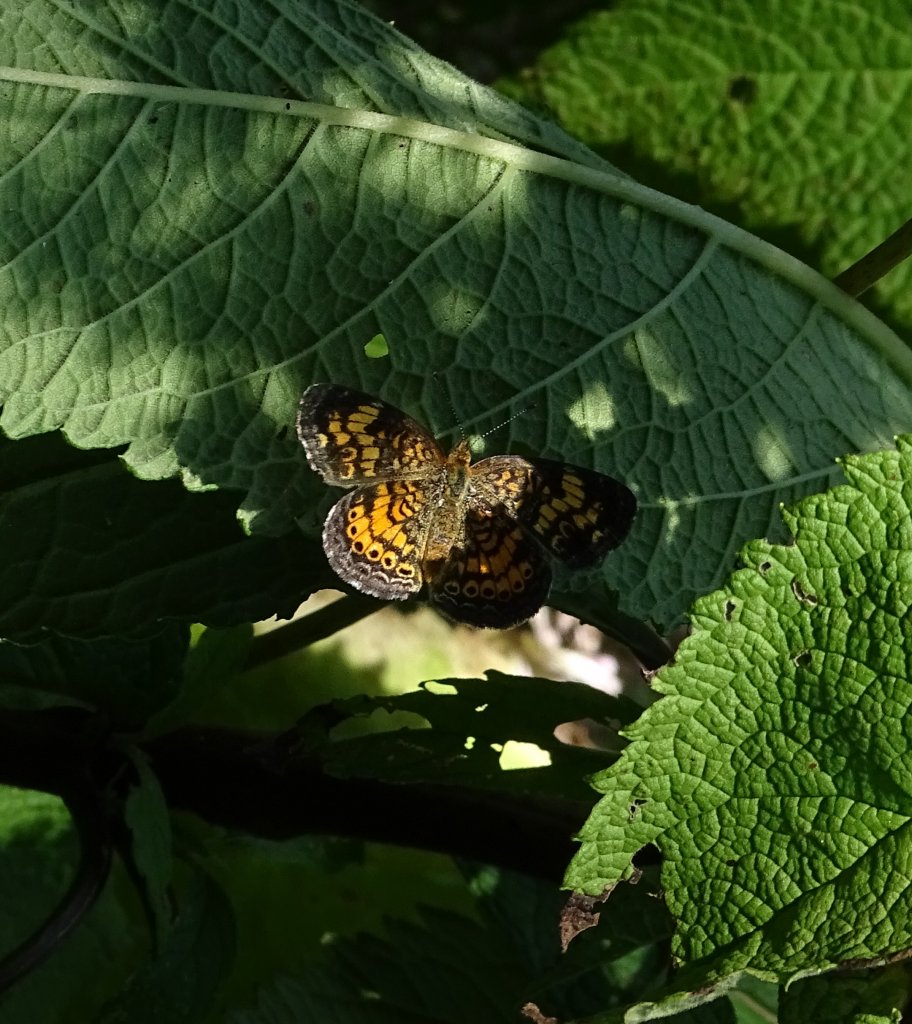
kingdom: Animalia
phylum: Arthropoda
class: Insecta
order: Lepidoptera
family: Nymphalidae
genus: Phyciodes
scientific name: Phyciodes tharos
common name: Pearl Crescent
